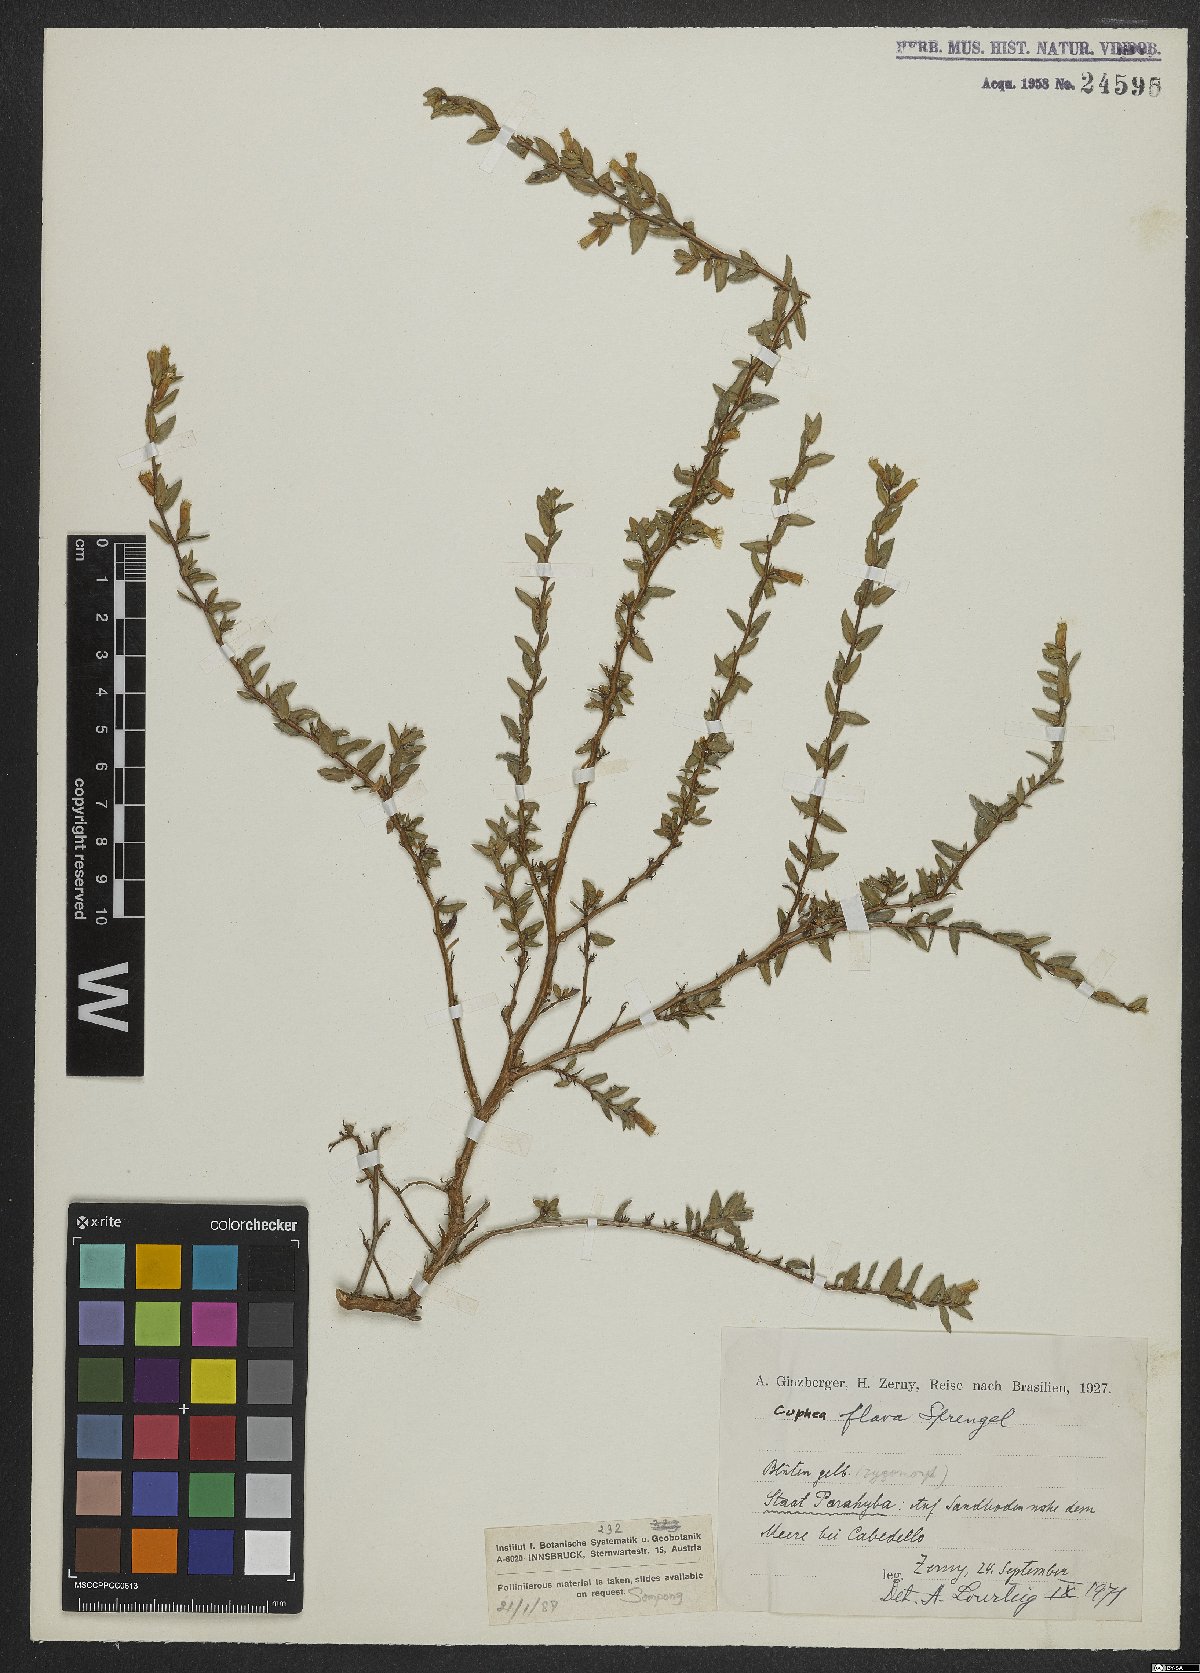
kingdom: Plantae
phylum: Tracheophyta
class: Magnoliopsida
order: Myrtales
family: Lythraceae
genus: Cuphea
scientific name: Cuphea flava
